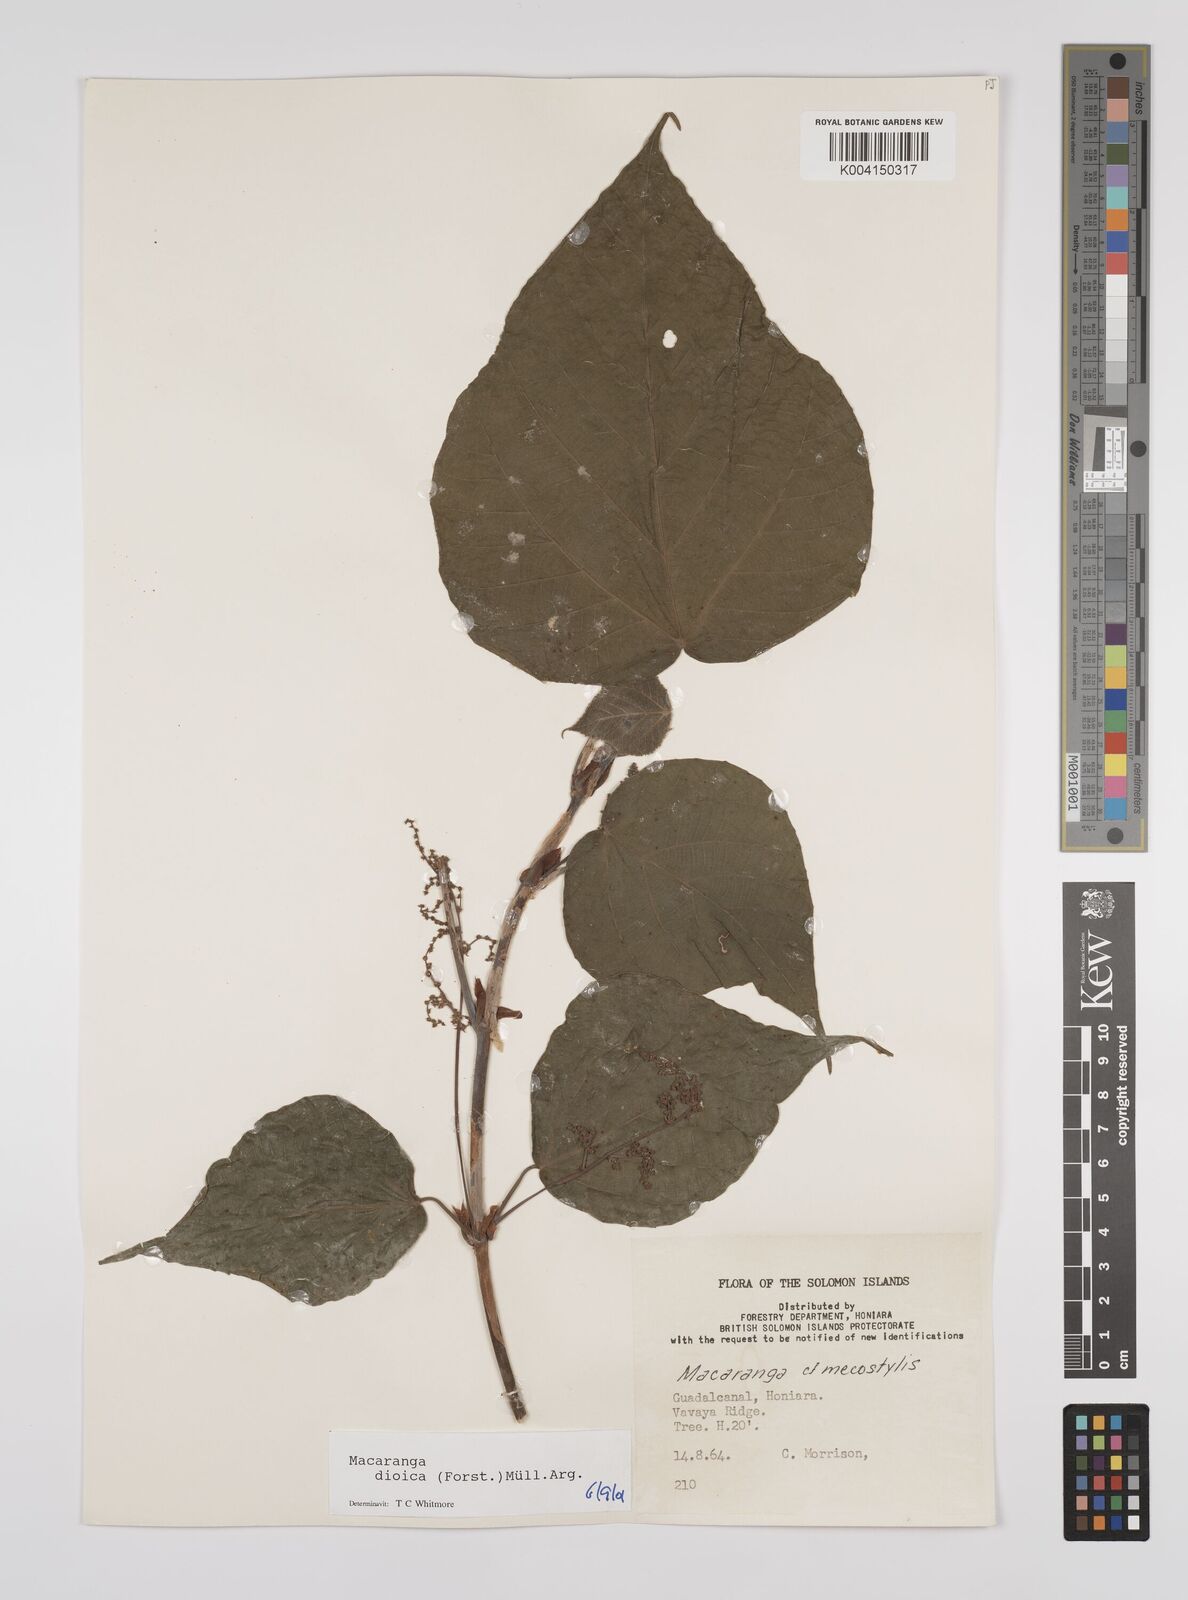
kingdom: Plantae
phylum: Tracheophyta
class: Magnoliopsida
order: Malpighiales
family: Euphorbiaceae
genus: Macaranga
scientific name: Macaranga dioica
